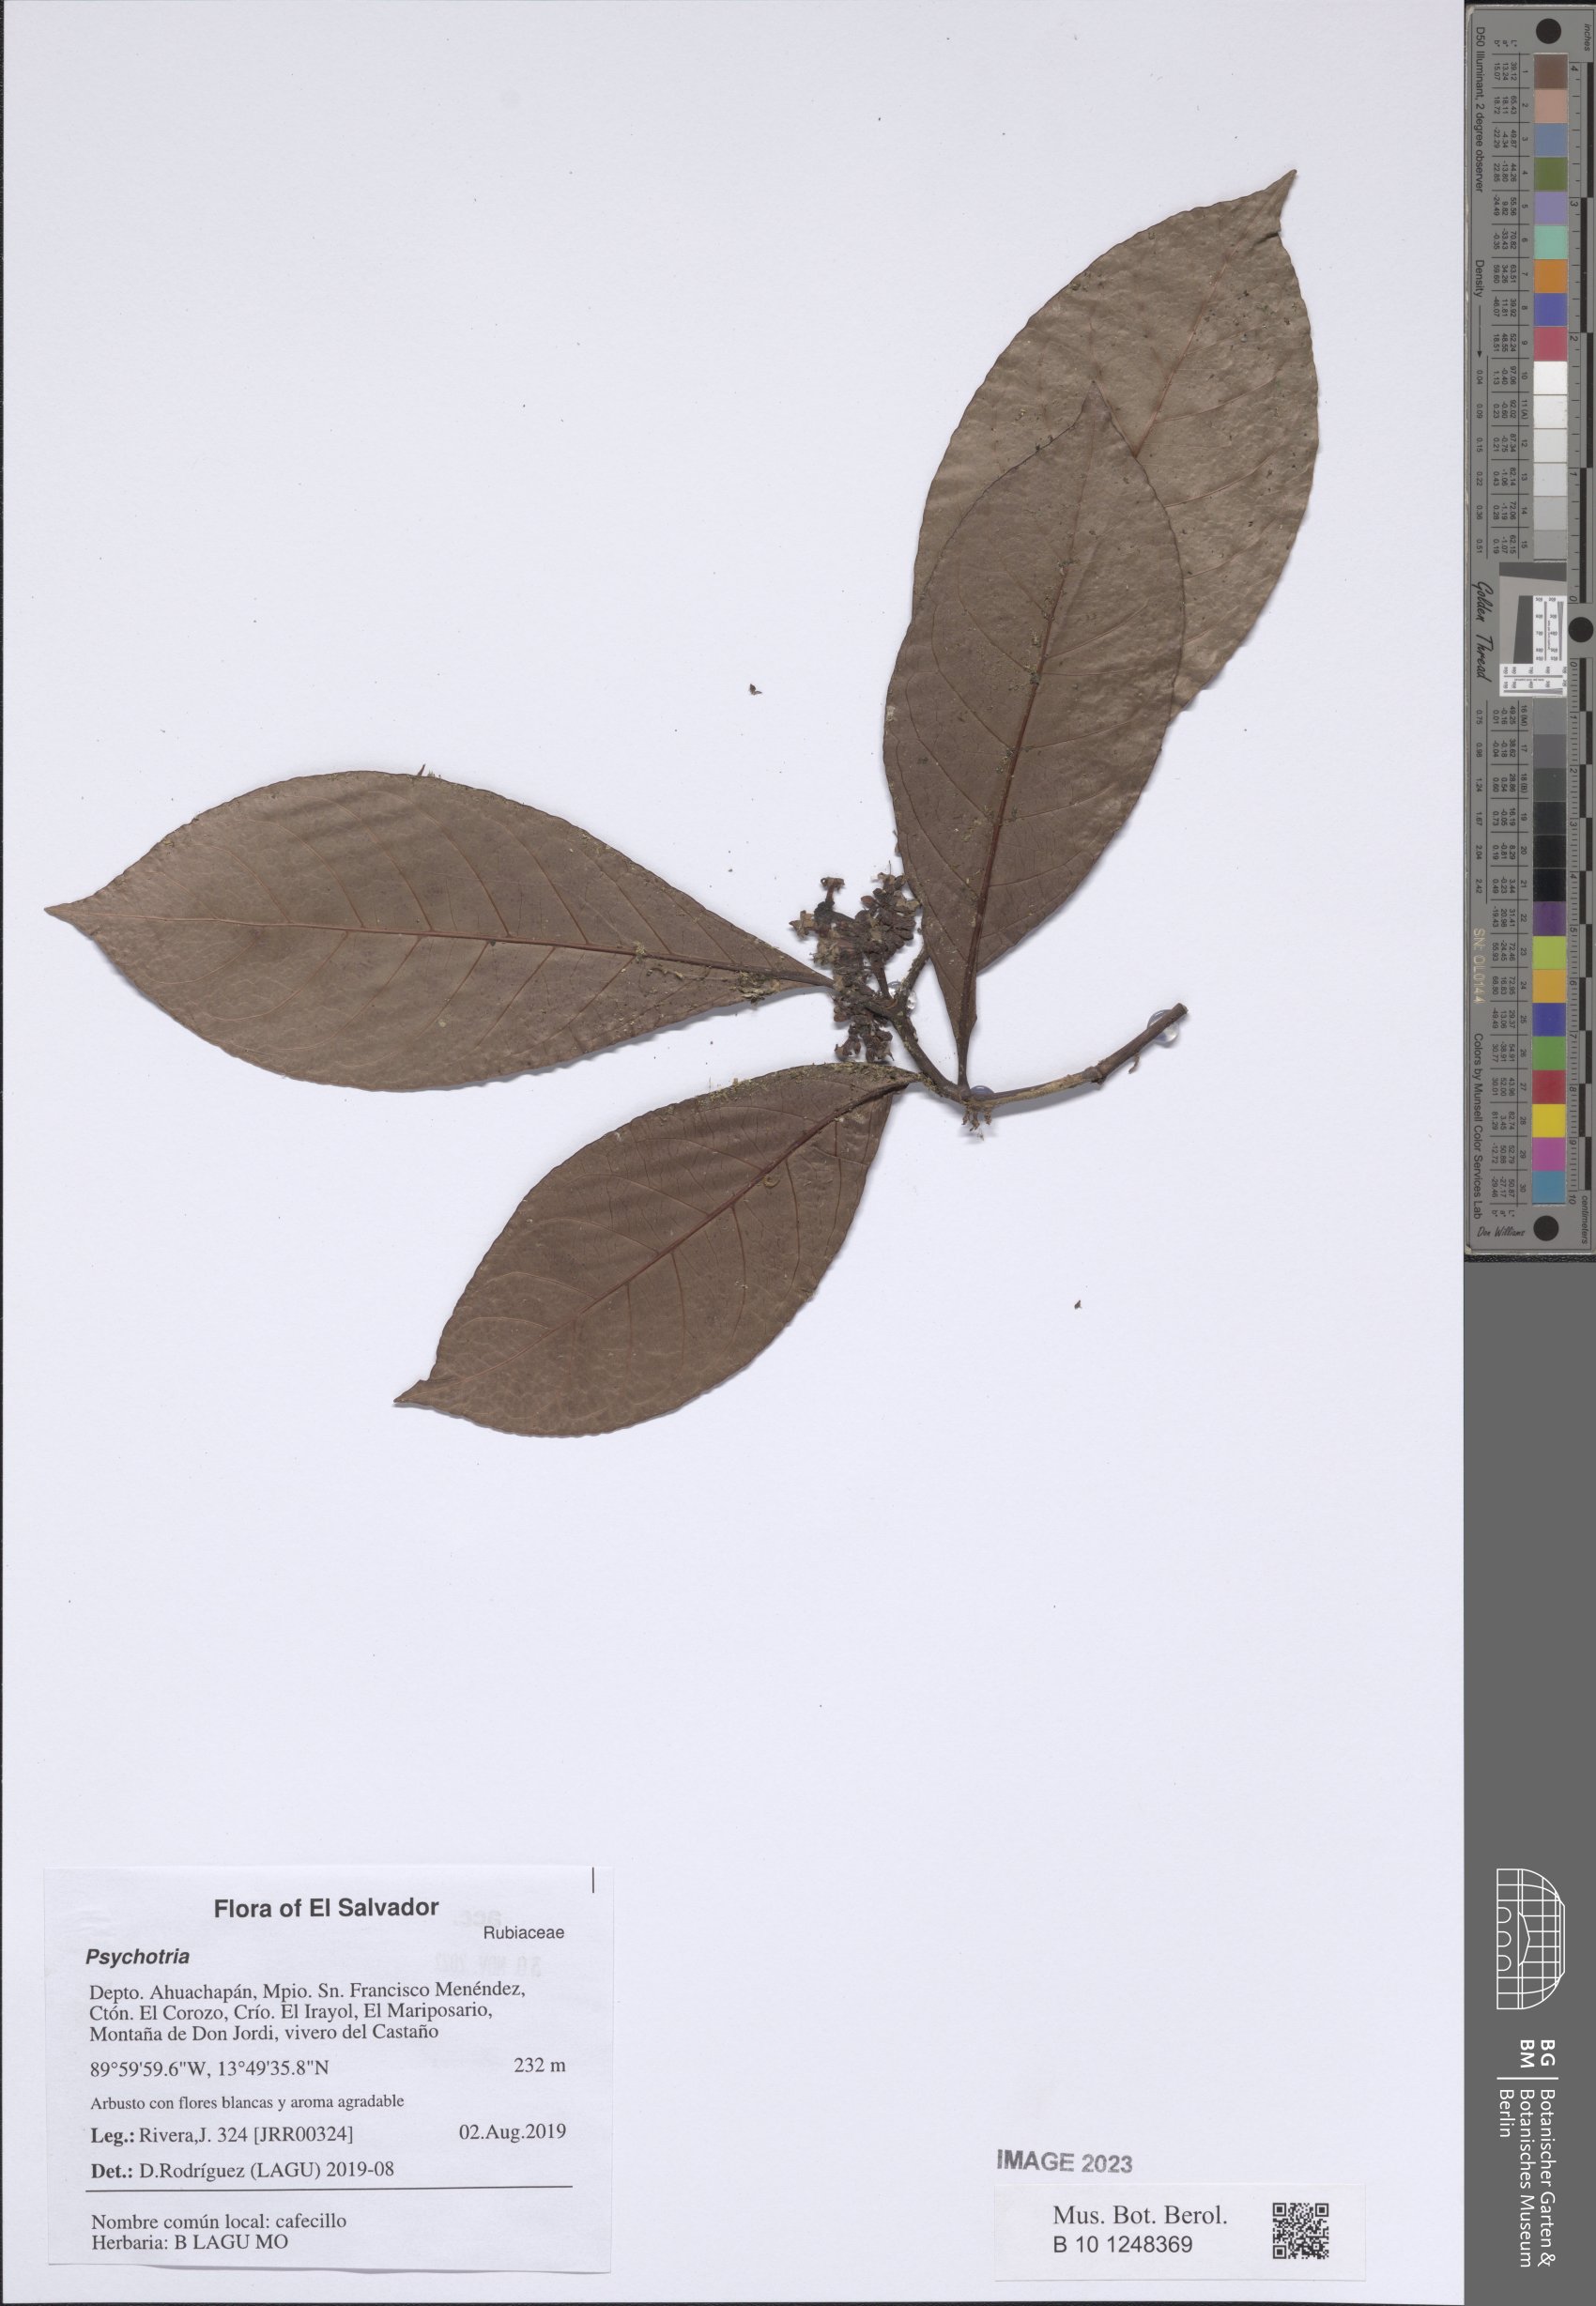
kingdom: Plantae
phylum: Tracheophyta
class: Magnoliopsida
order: Gentianales
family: Rubiaceae
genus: Psychotria
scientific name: Psychotria
